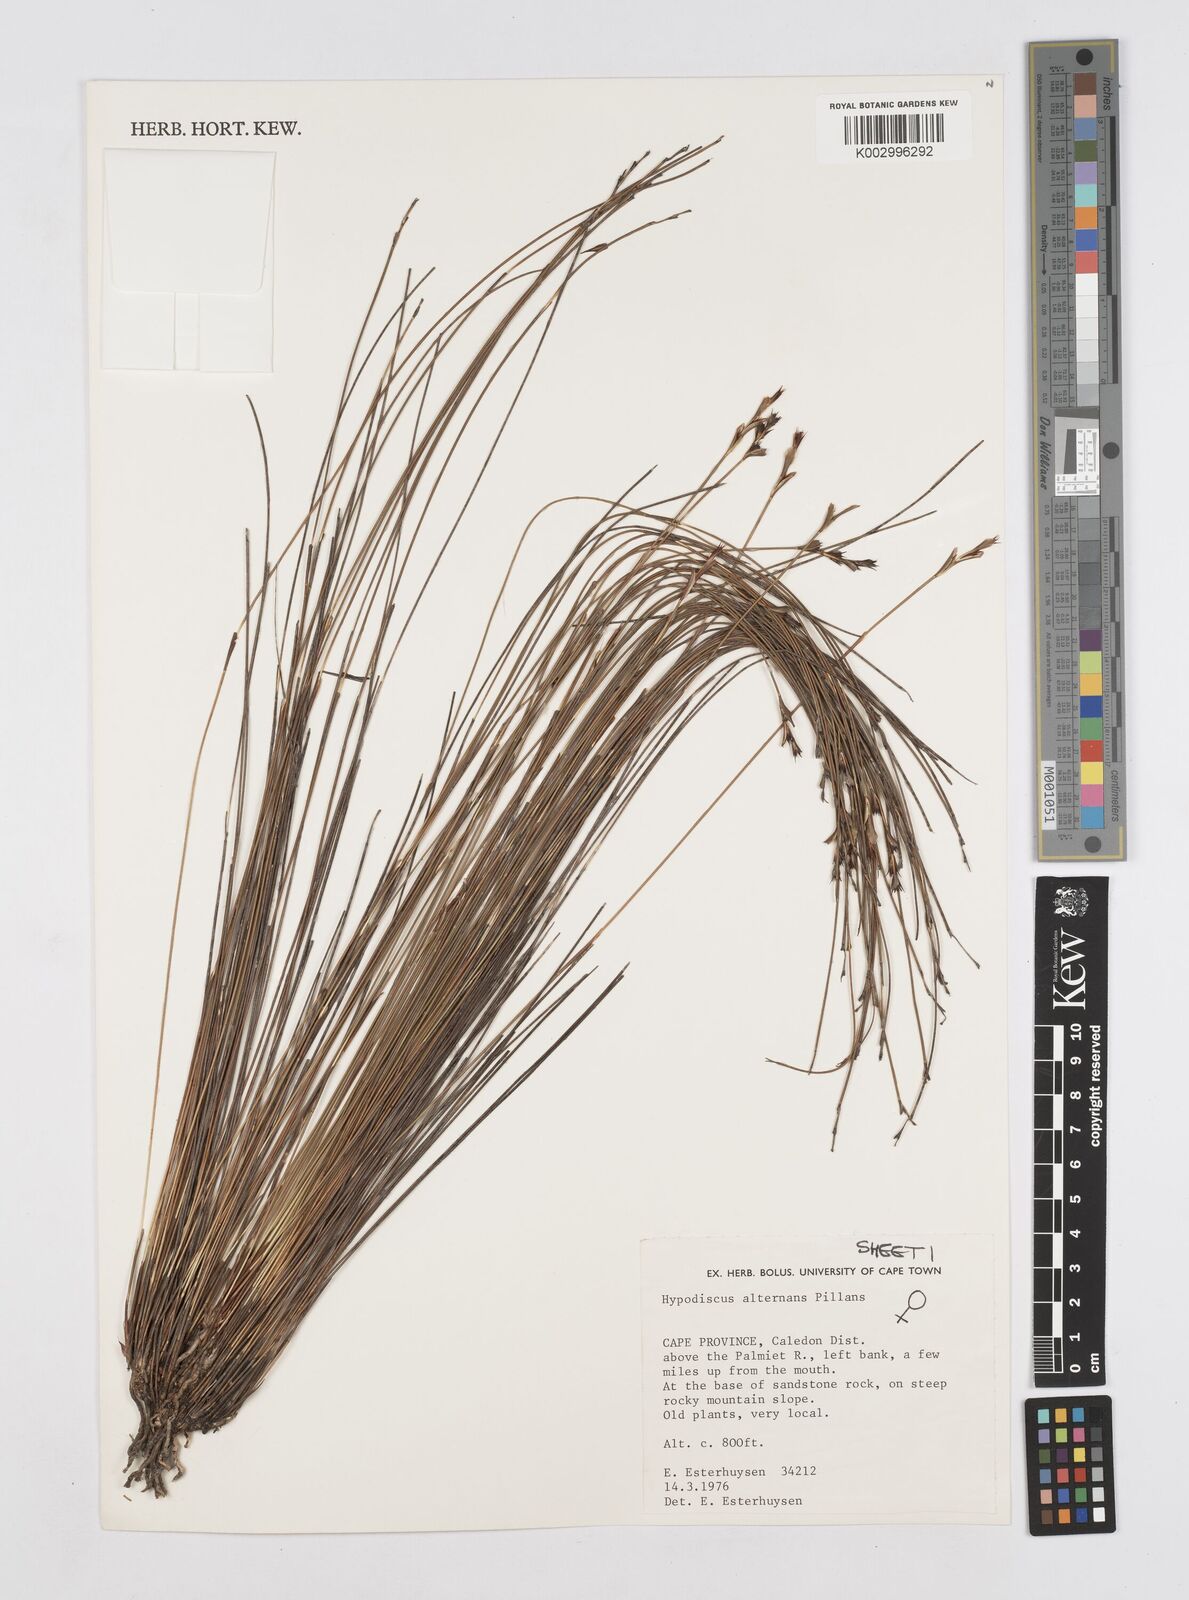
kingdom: Plantae
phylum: Tracheophyta
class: Liliopsida
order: Poales
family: Restionaceae
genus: Hypodiscus
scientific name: Hypodiscus alternans
